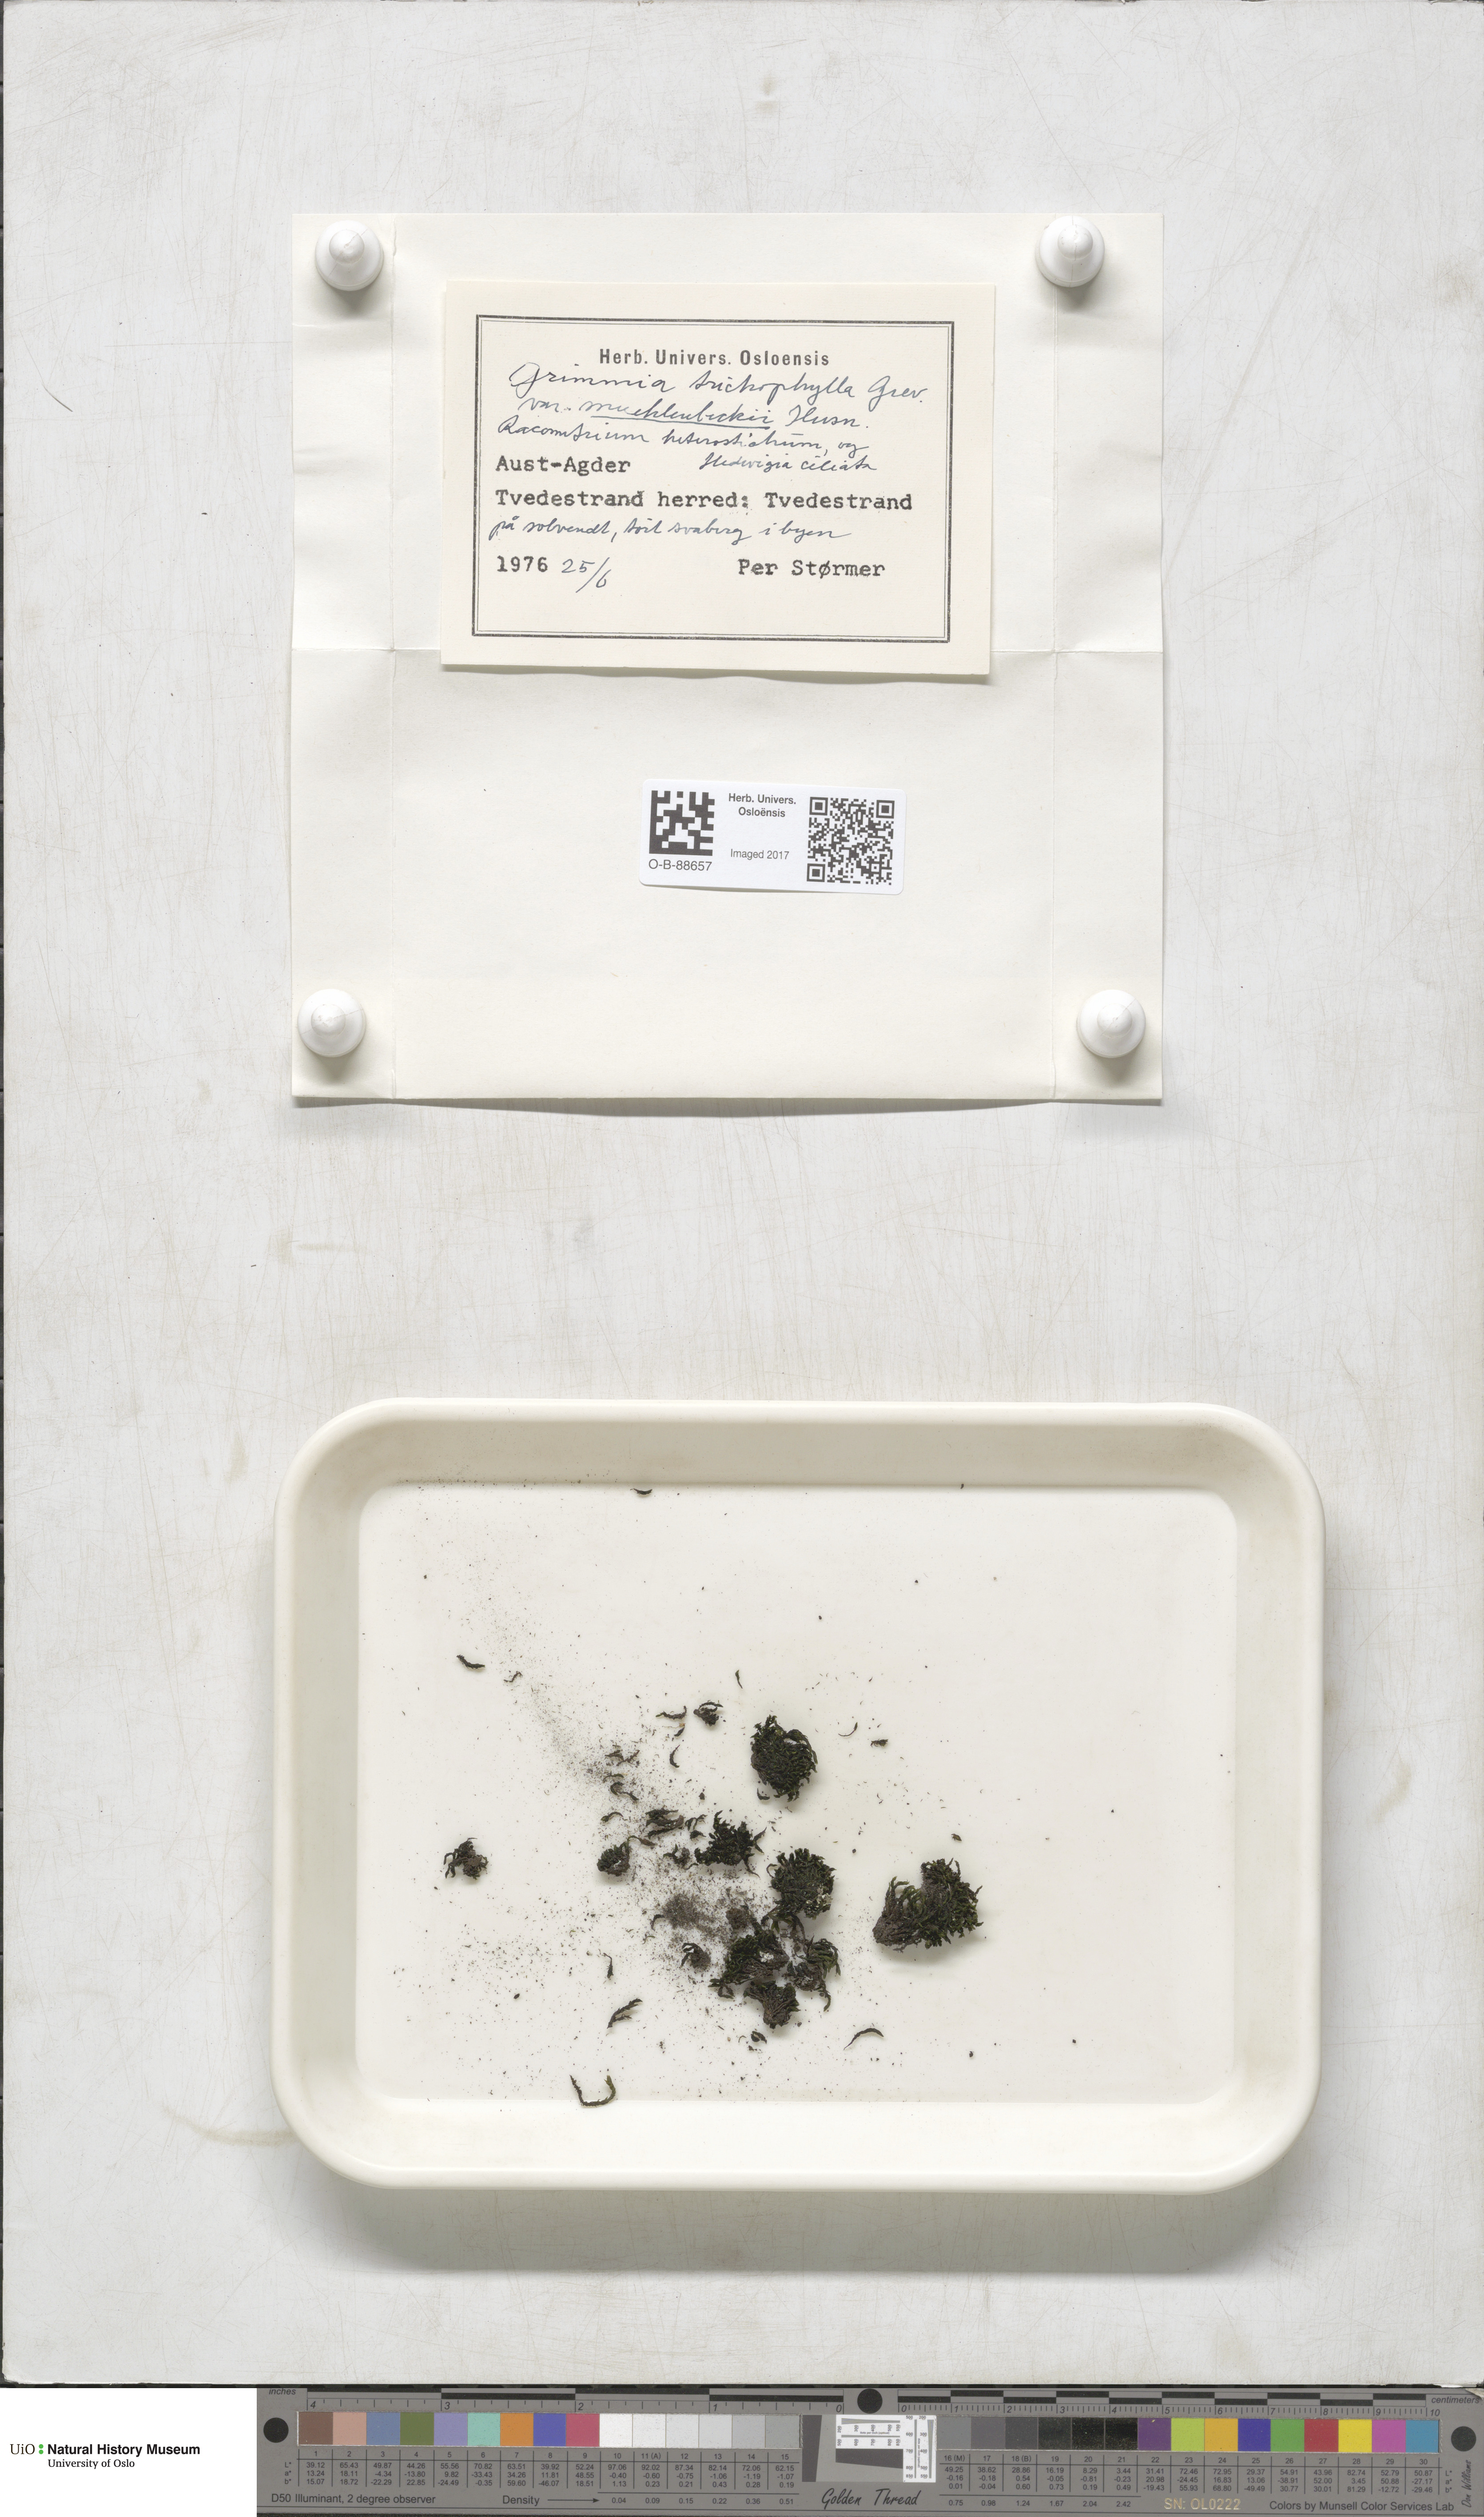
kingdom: Plantae
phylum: Bryophyta
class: Bryopsida
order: Grimmiales
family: Grimmiaceae
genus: Grimmia
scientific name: Grimmia trichophylla
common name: Hair-pointed grimmia
